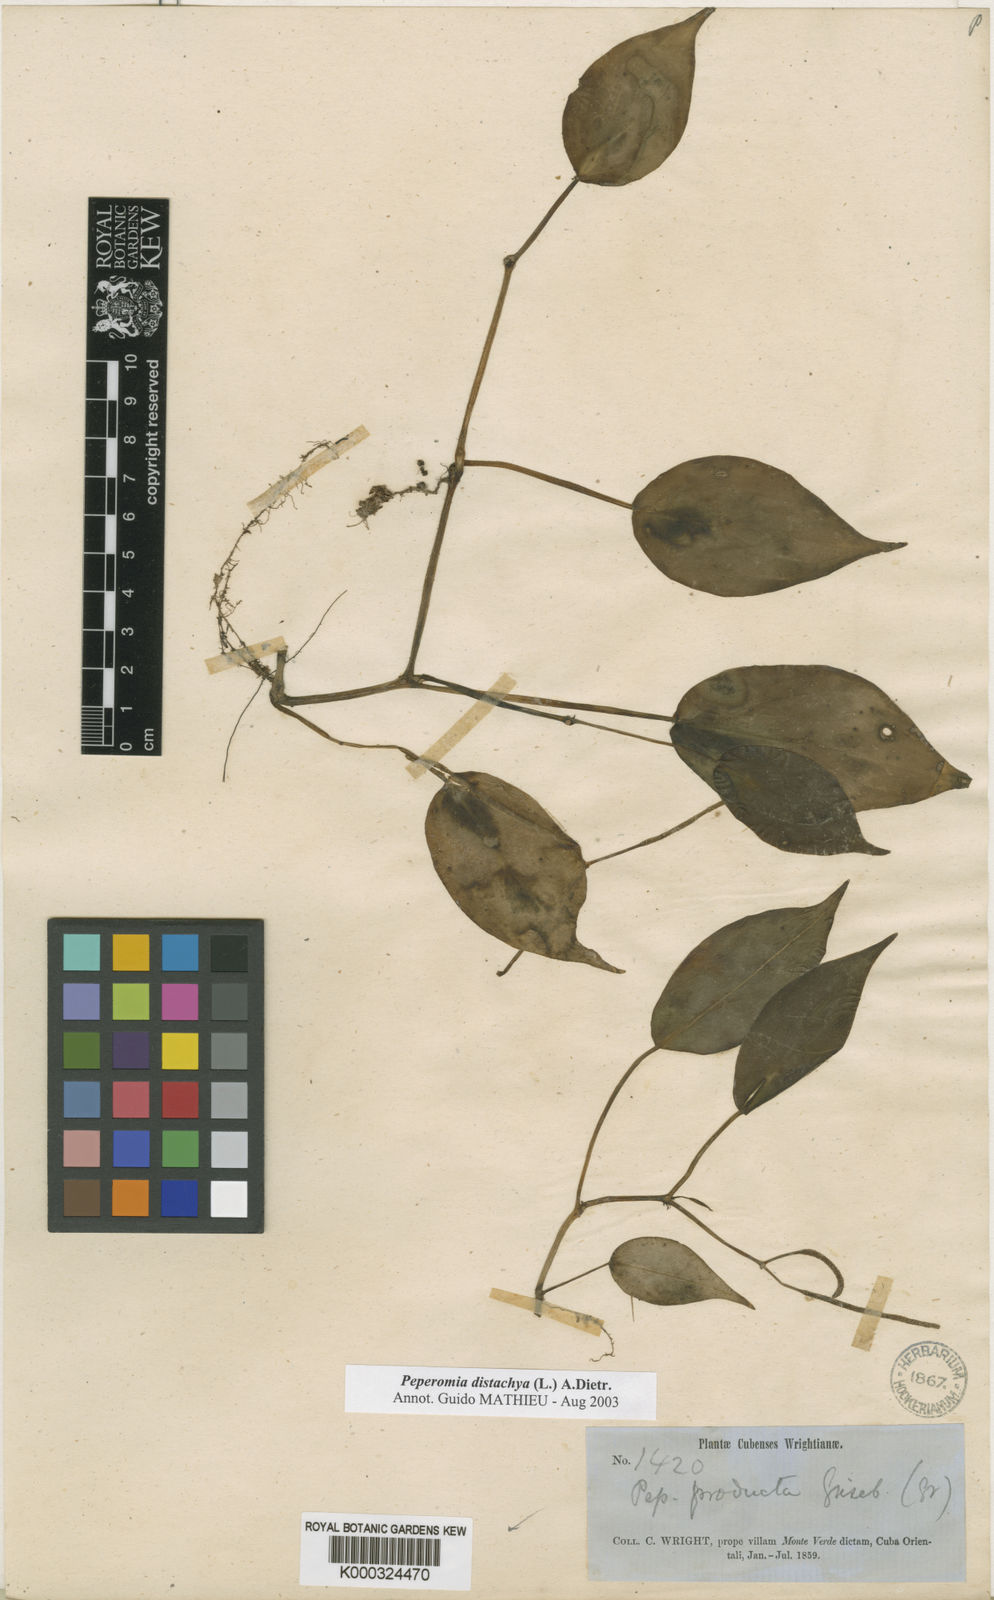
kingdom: Plantae
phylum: Tracheophyta
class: Magnoliopsida
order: Piperales
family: Piperaceae
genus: Peperomia
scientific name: Peperomia distachyos
